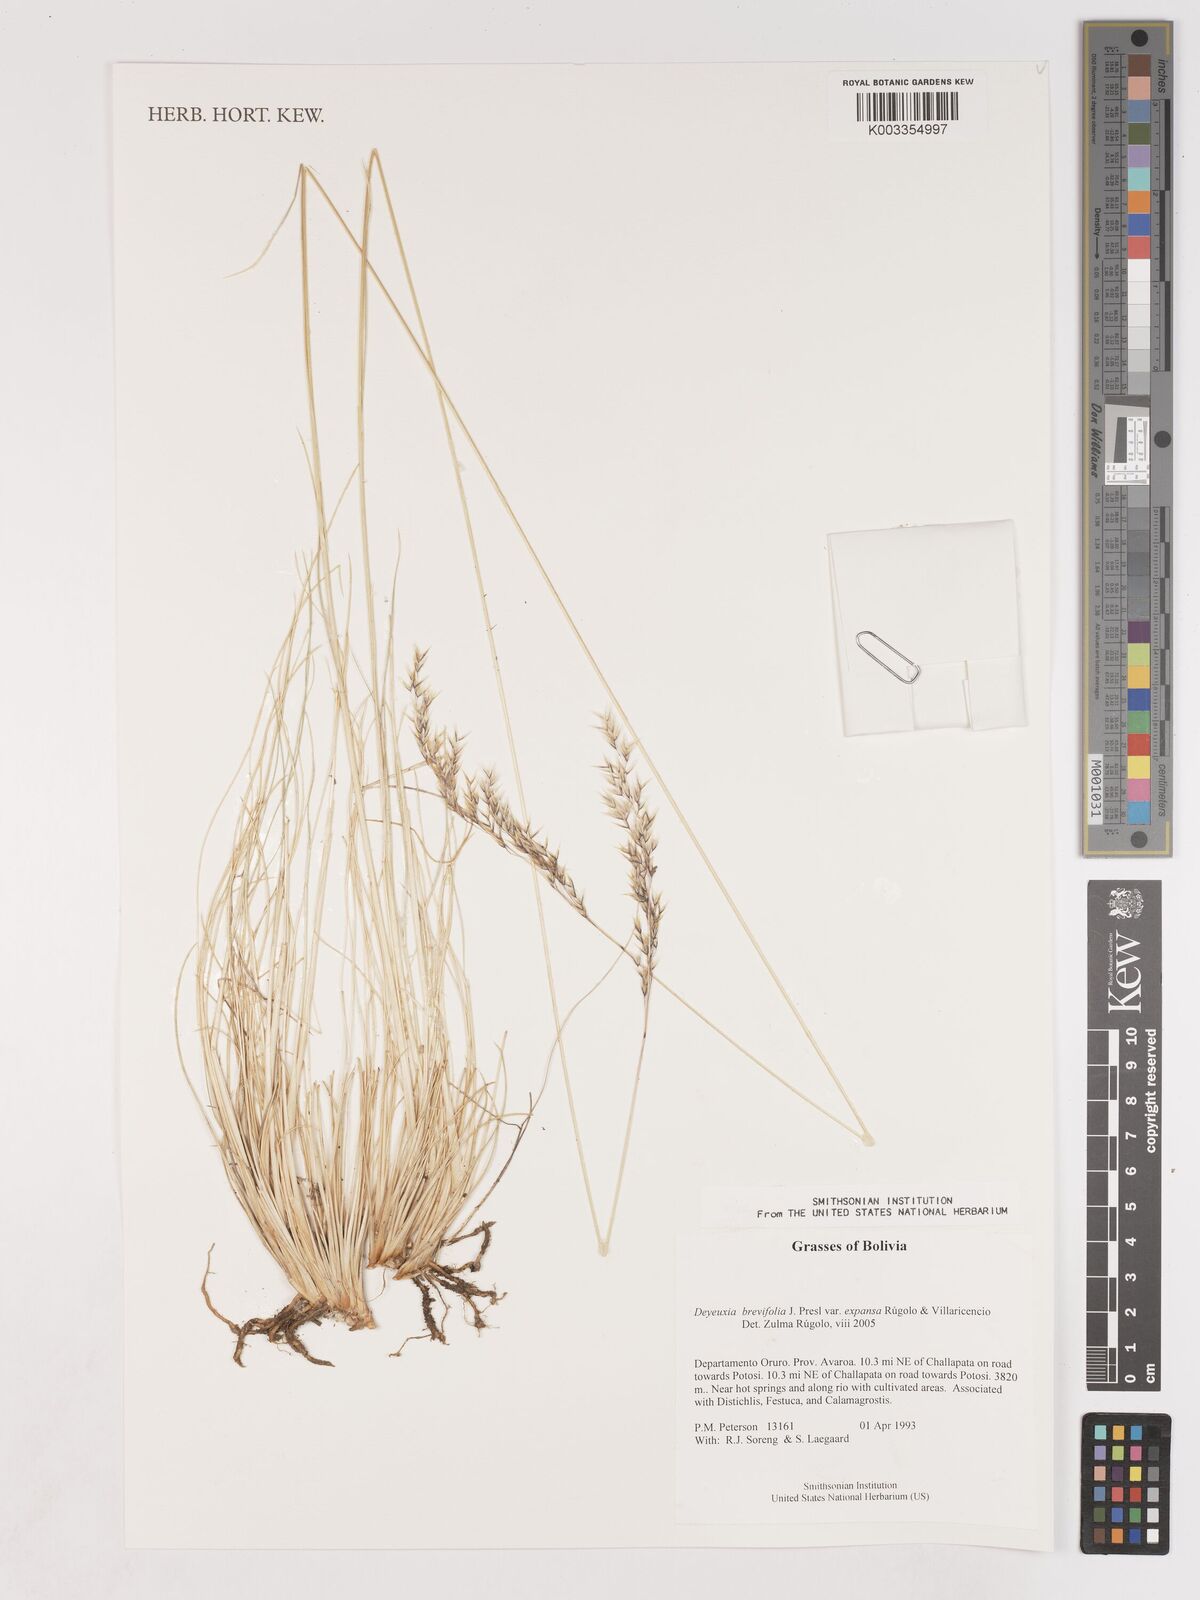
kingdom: Plantae
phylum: Tracheophyta
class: Liliopsida
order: Poales
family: Poaceae
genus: Cinnagrostis
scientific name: Cinnagrostis brevifolia
